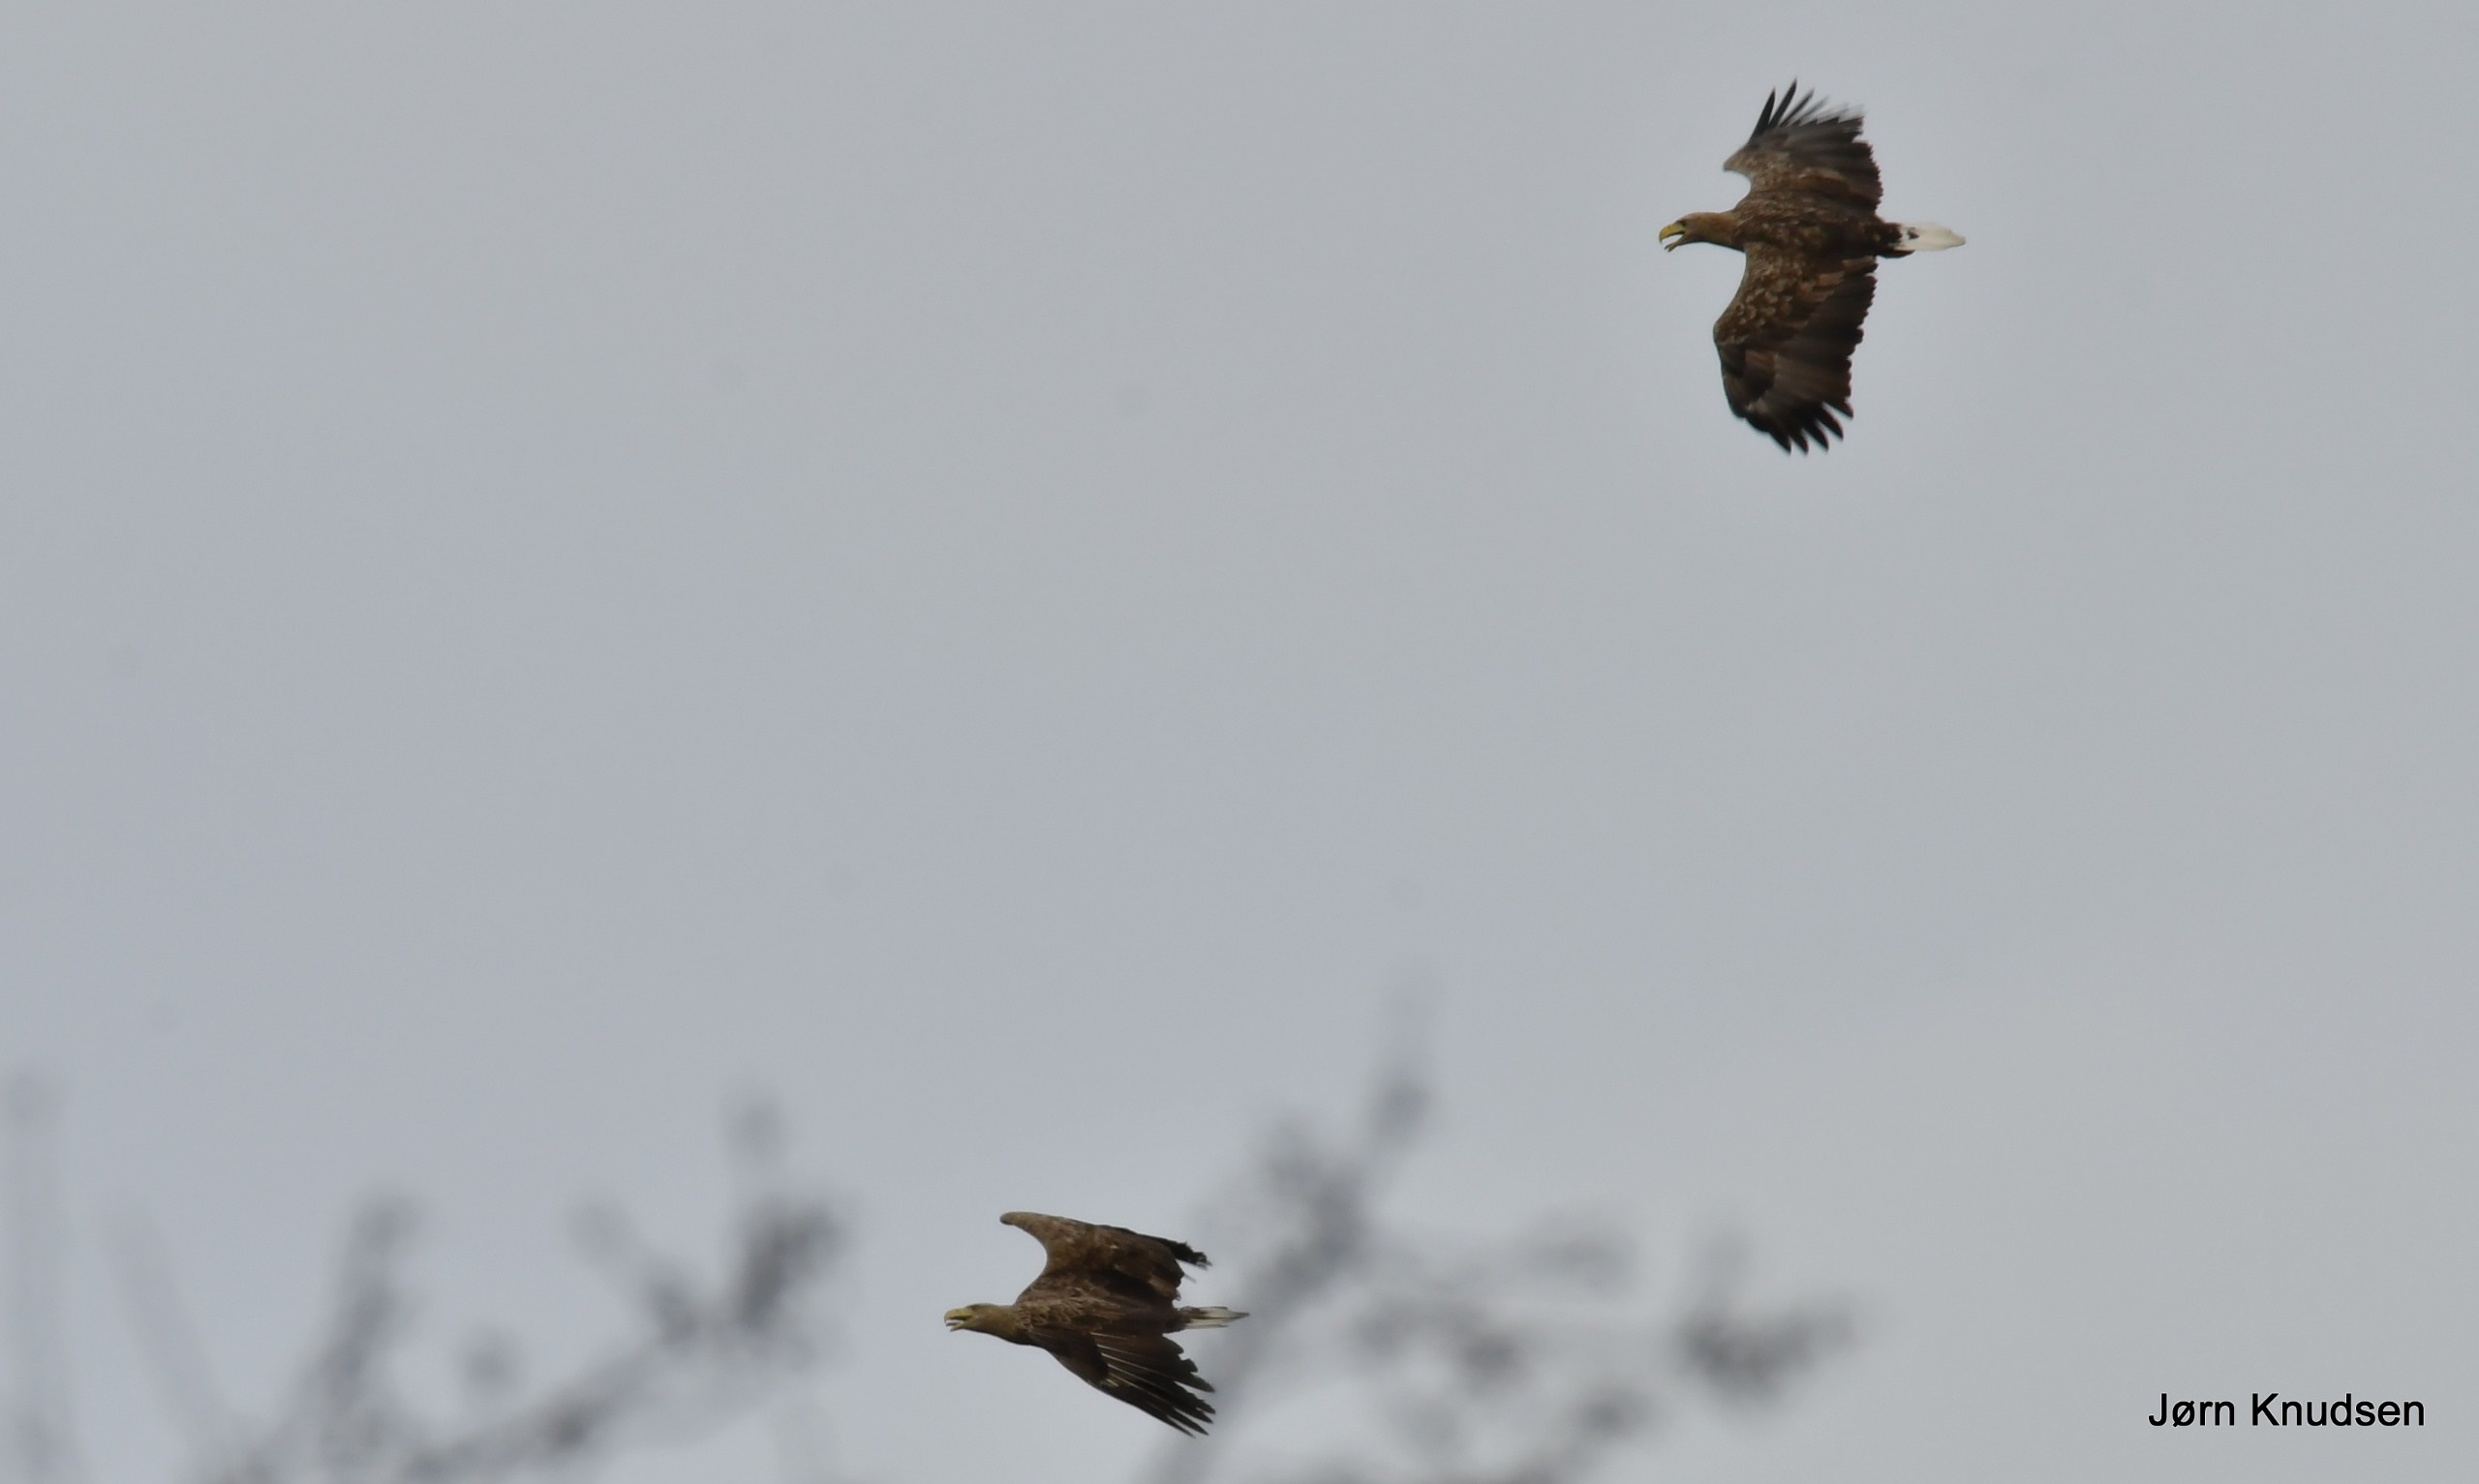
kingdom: Animalia
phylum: Chordata
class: Aves
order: Accipitriformes
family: Accipitridae
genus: Haliaeetus
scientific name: Haliaeetus albicilla
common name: Havørn
